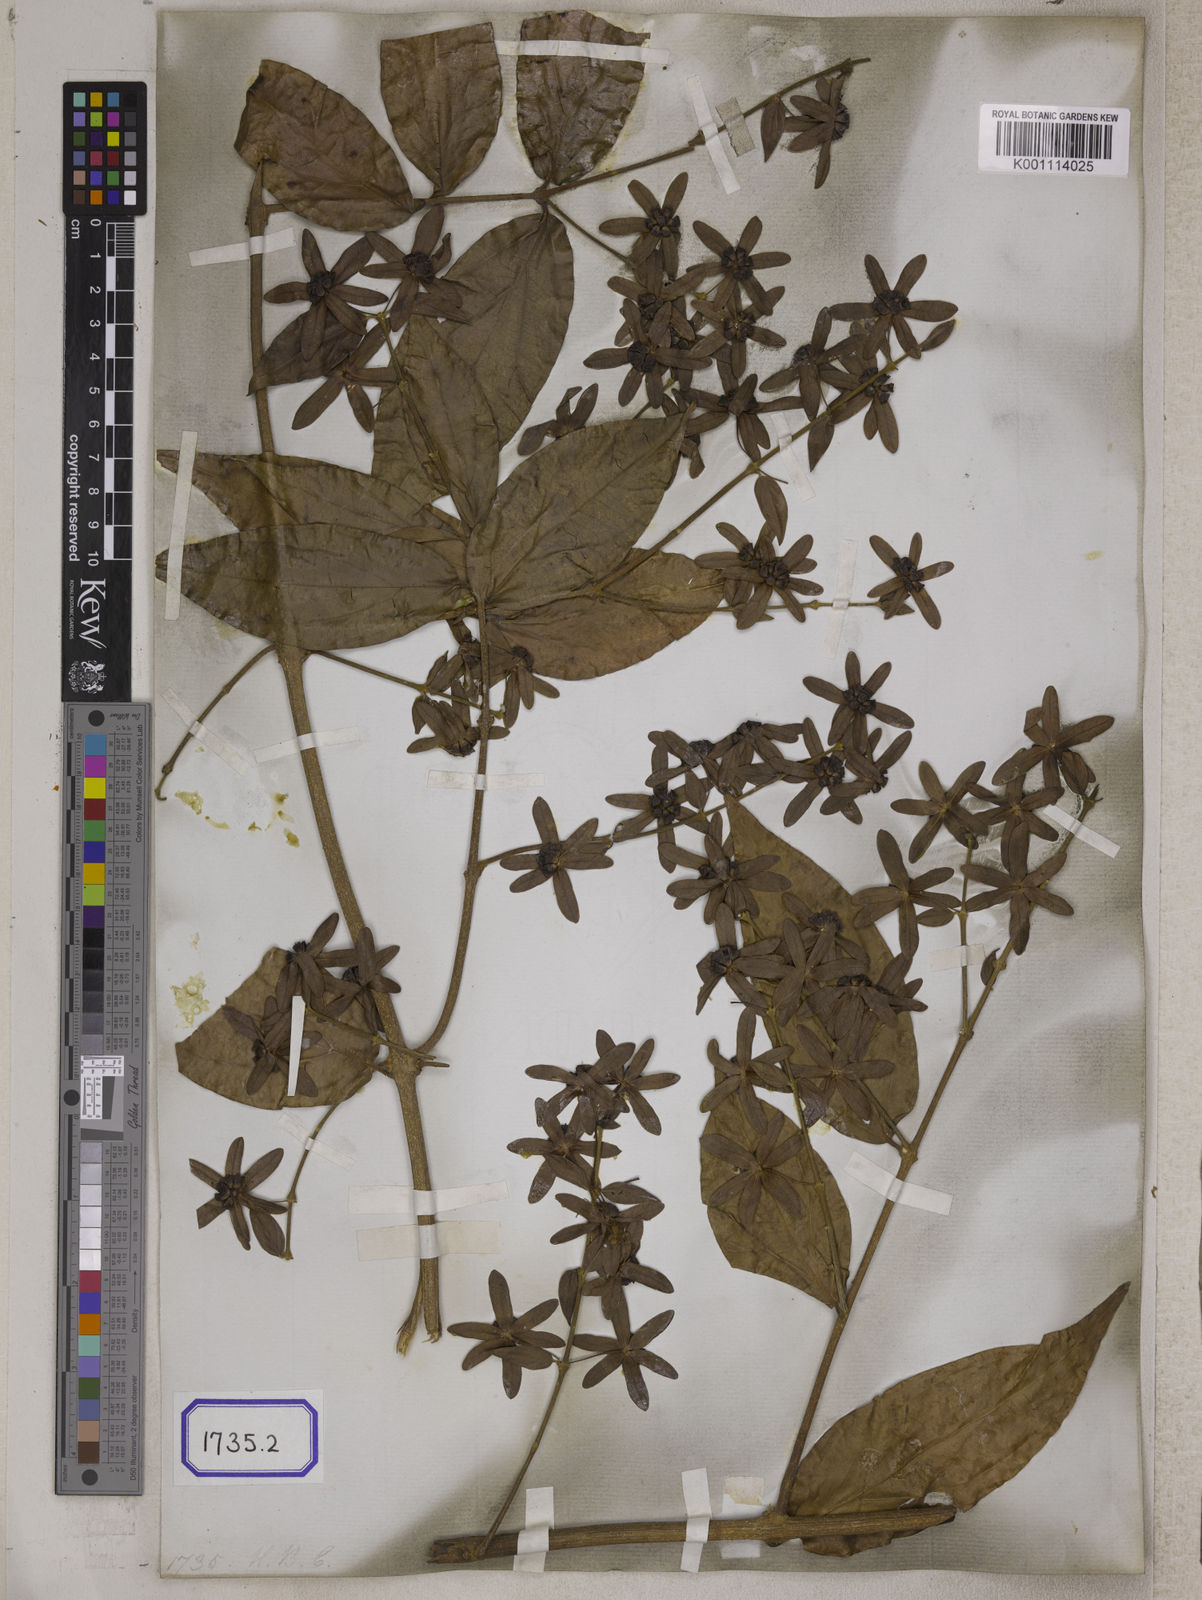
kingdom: Plantae
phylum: Tracheophyta
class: Magnoliopsida
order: Lamiales
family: Lamiaceae
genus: Sphenodesme
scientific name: Sphenodesme pentandra
